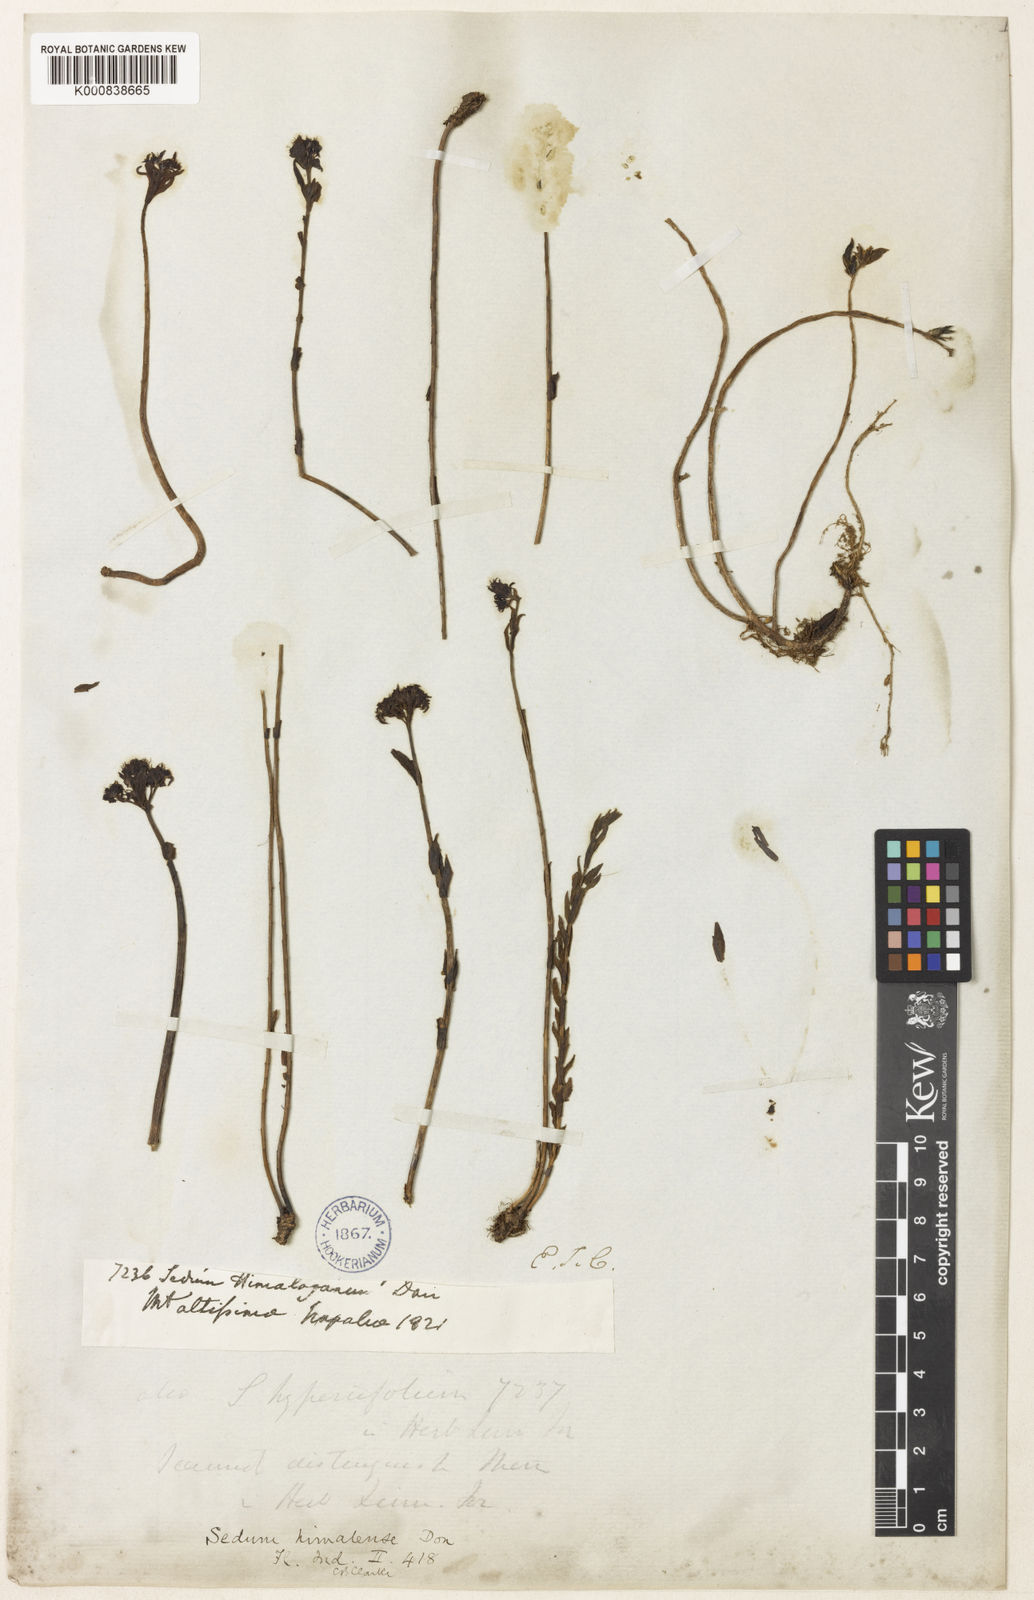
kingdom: Plantae
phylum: Tracheophyta
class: Magnoliopsida
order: Saxifragales
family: Crassulaceae
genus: Rhodiola
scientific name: Rhodiola himalensis
